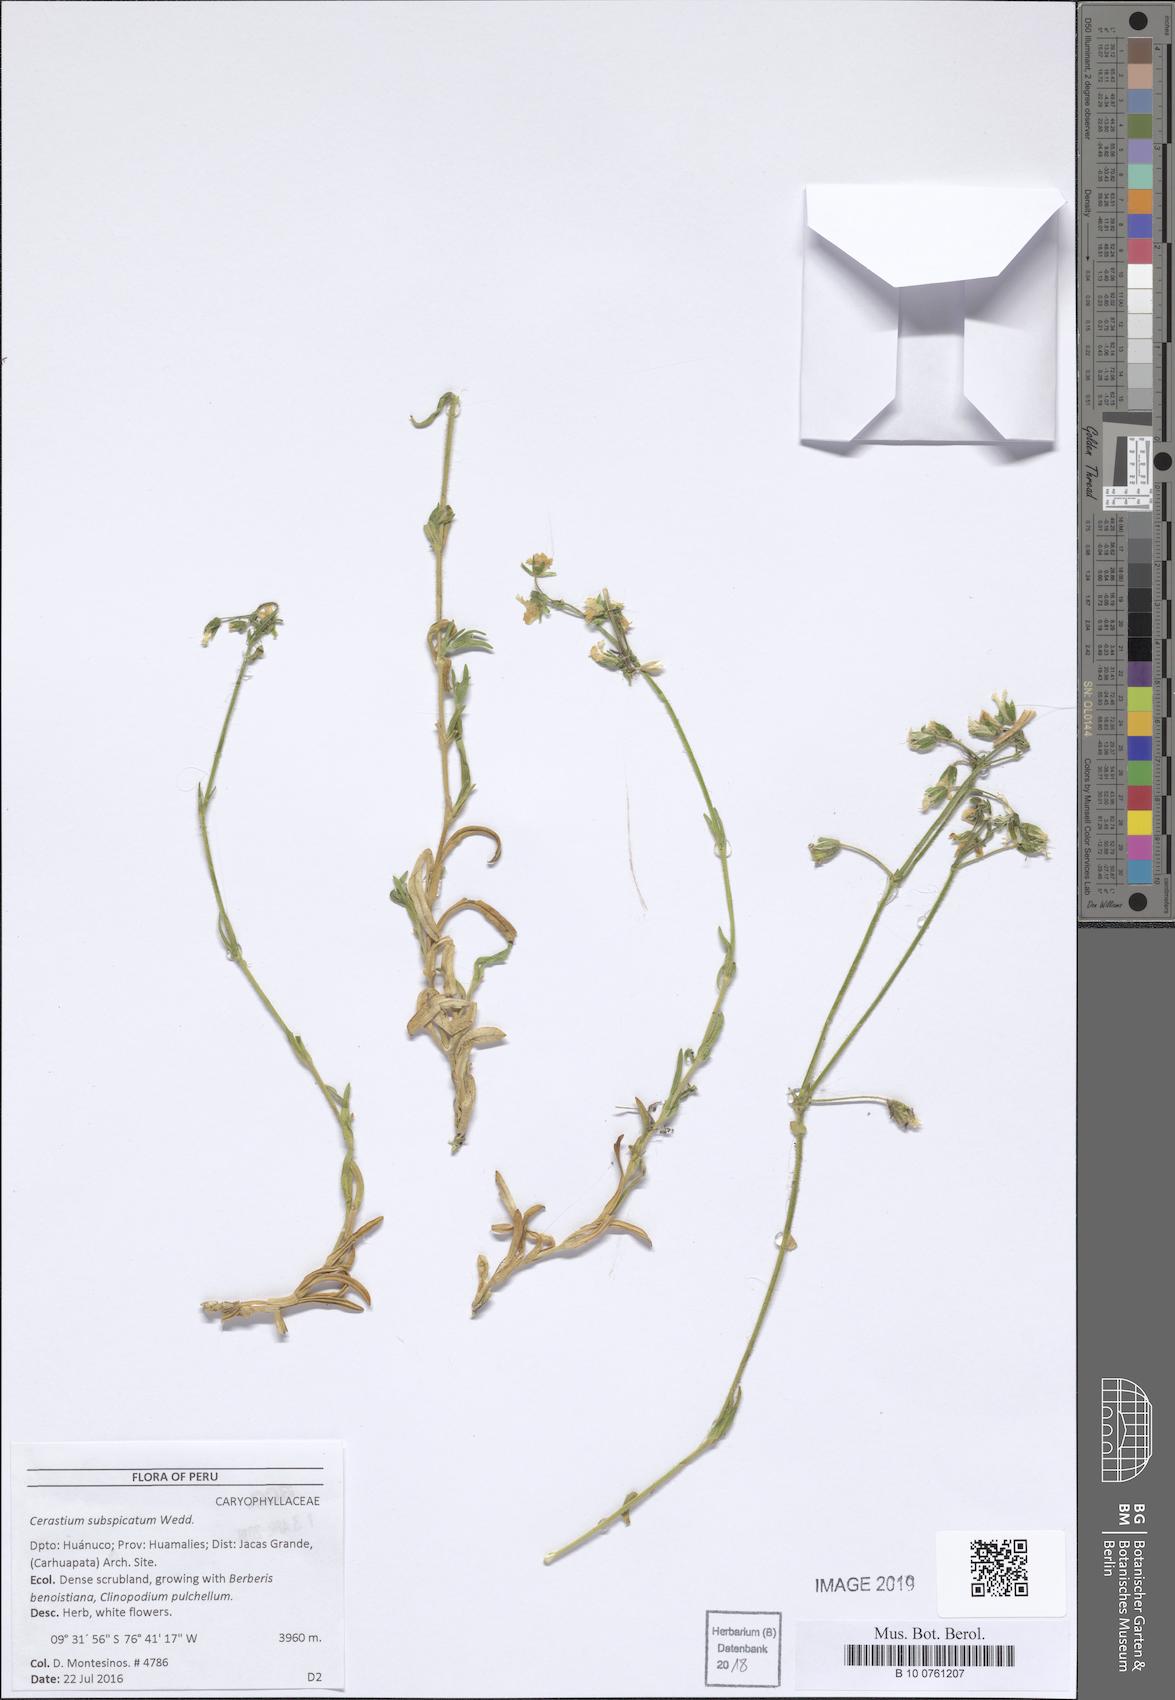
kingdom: Plantae
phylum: Tracheophyta
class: Magnoliopsida
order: Caryophyllales
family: Caryophyllaceae
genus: Cerastium
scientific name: Cerastium subspicatum
